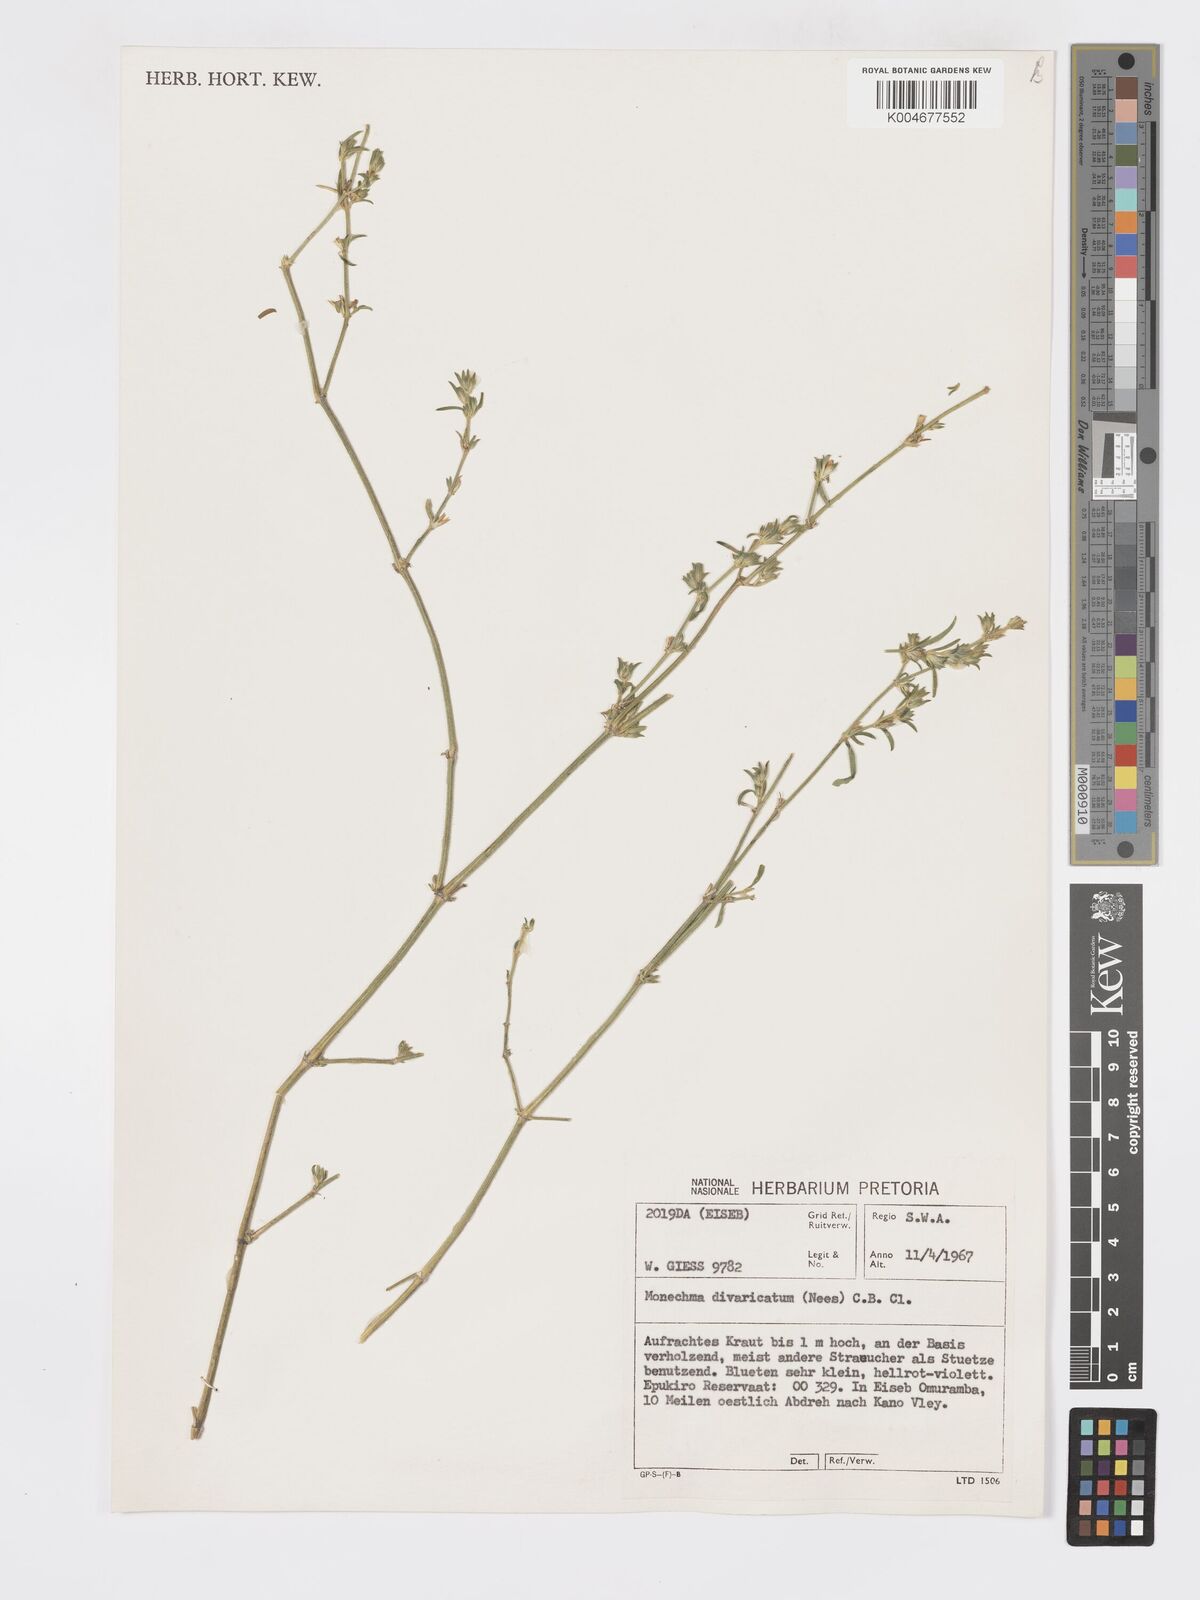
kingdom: Plantae
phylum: Tracheophyta
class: Magnoliopsida
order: Lamiales
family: Acanthaceae
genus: Pogonospermum
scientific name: Pogonospermum
